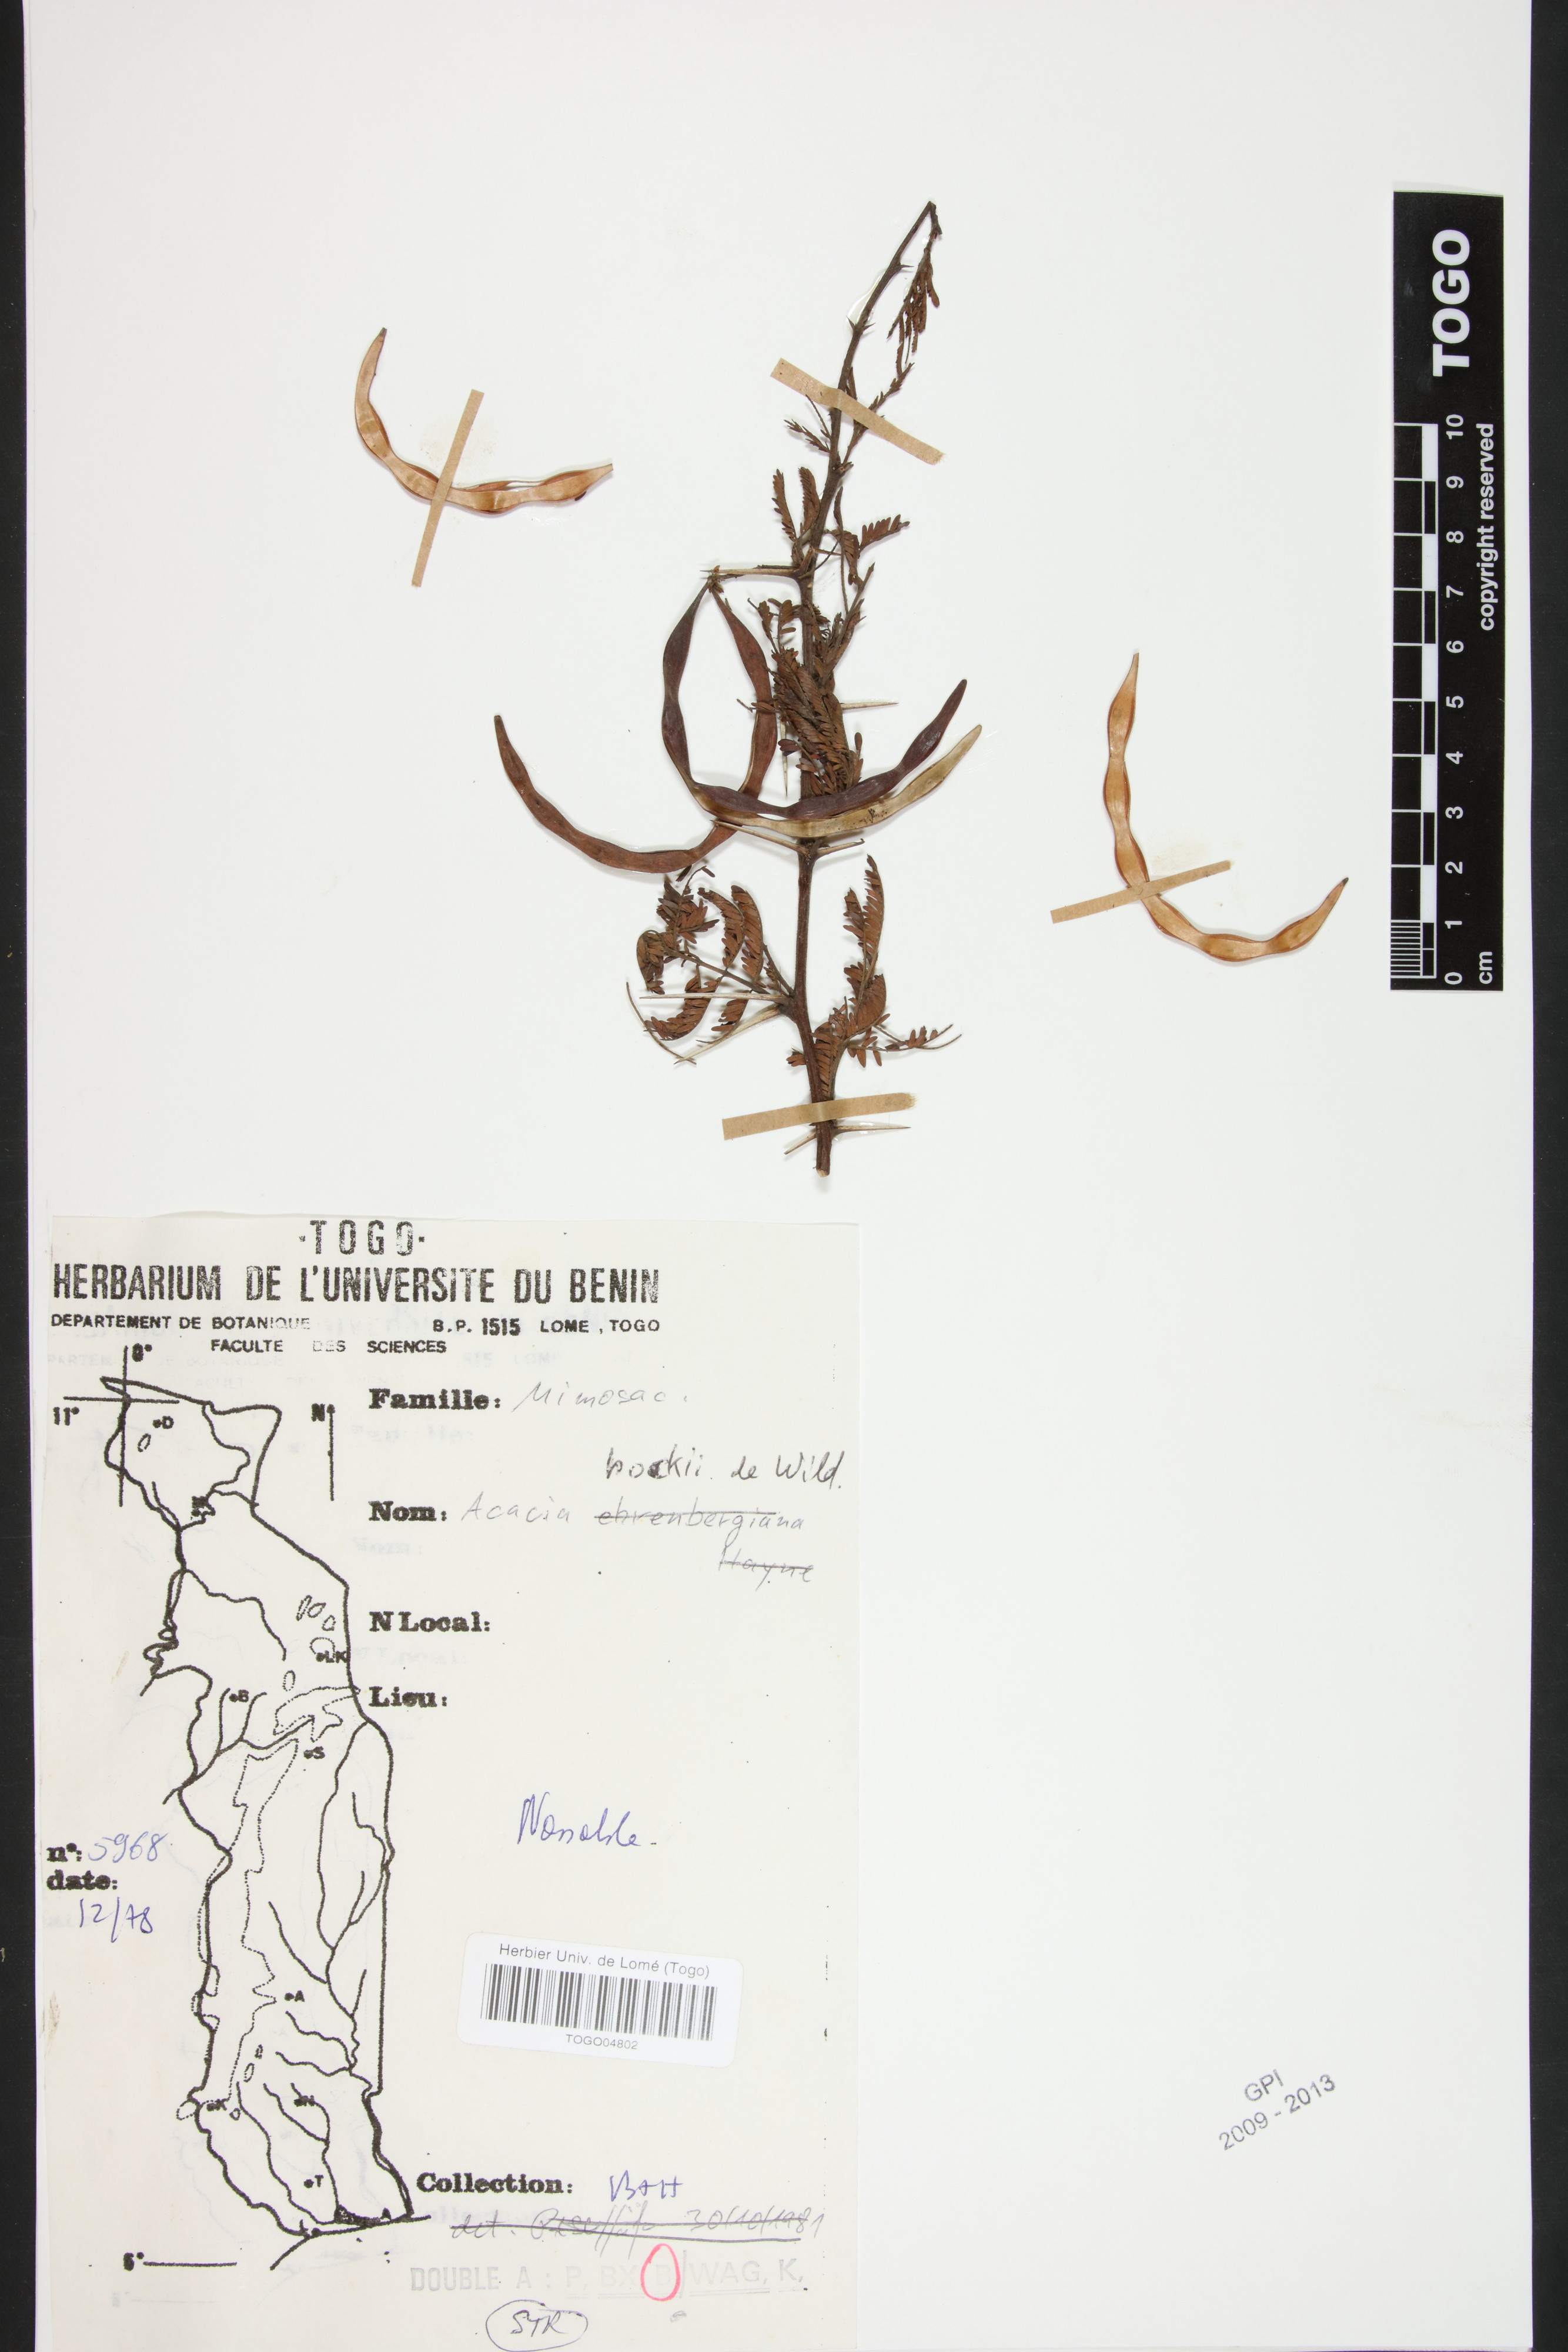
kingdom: Plantae
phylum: Tracheophyta
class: Magnoliopsida
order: Fabales
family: Fabaceae
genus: Vachellia
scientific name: Vachellia hockii
